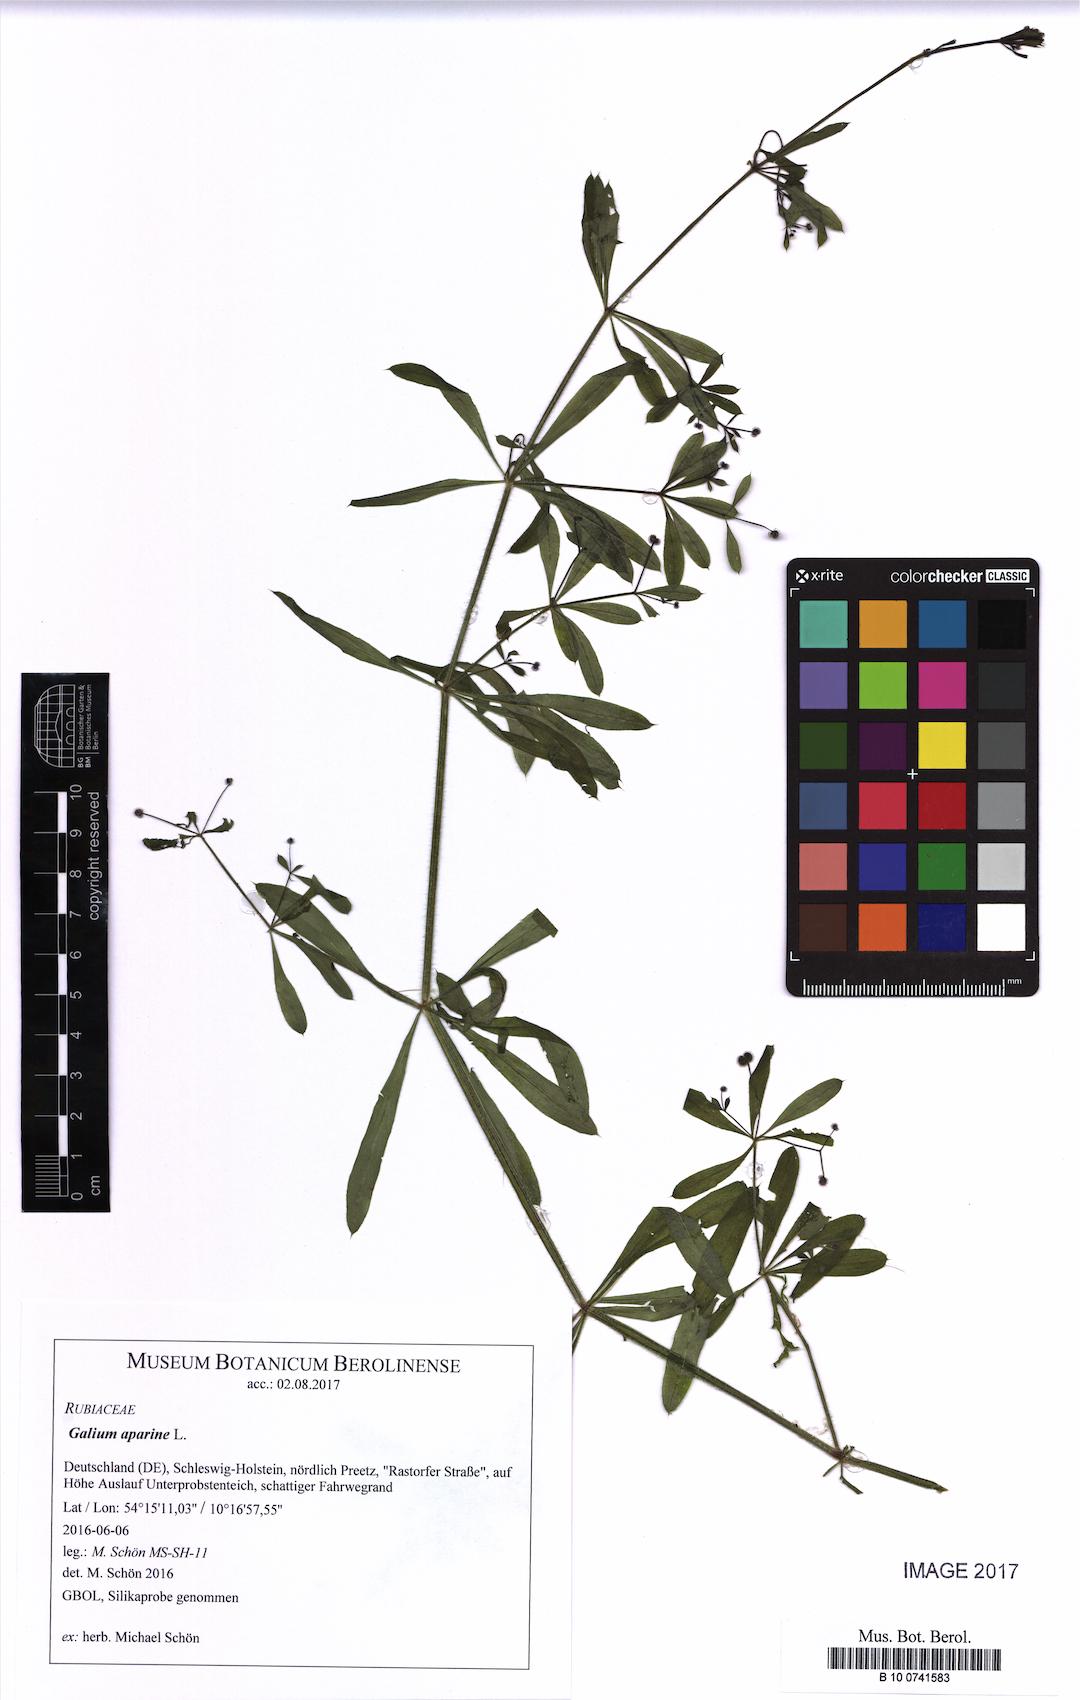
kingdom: Plantae
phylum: Tracheophyta
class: Magnoliopsida
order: Gentianales
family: Rubiaceae
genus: Galium
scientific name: Galium aparine
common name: Cleavers
